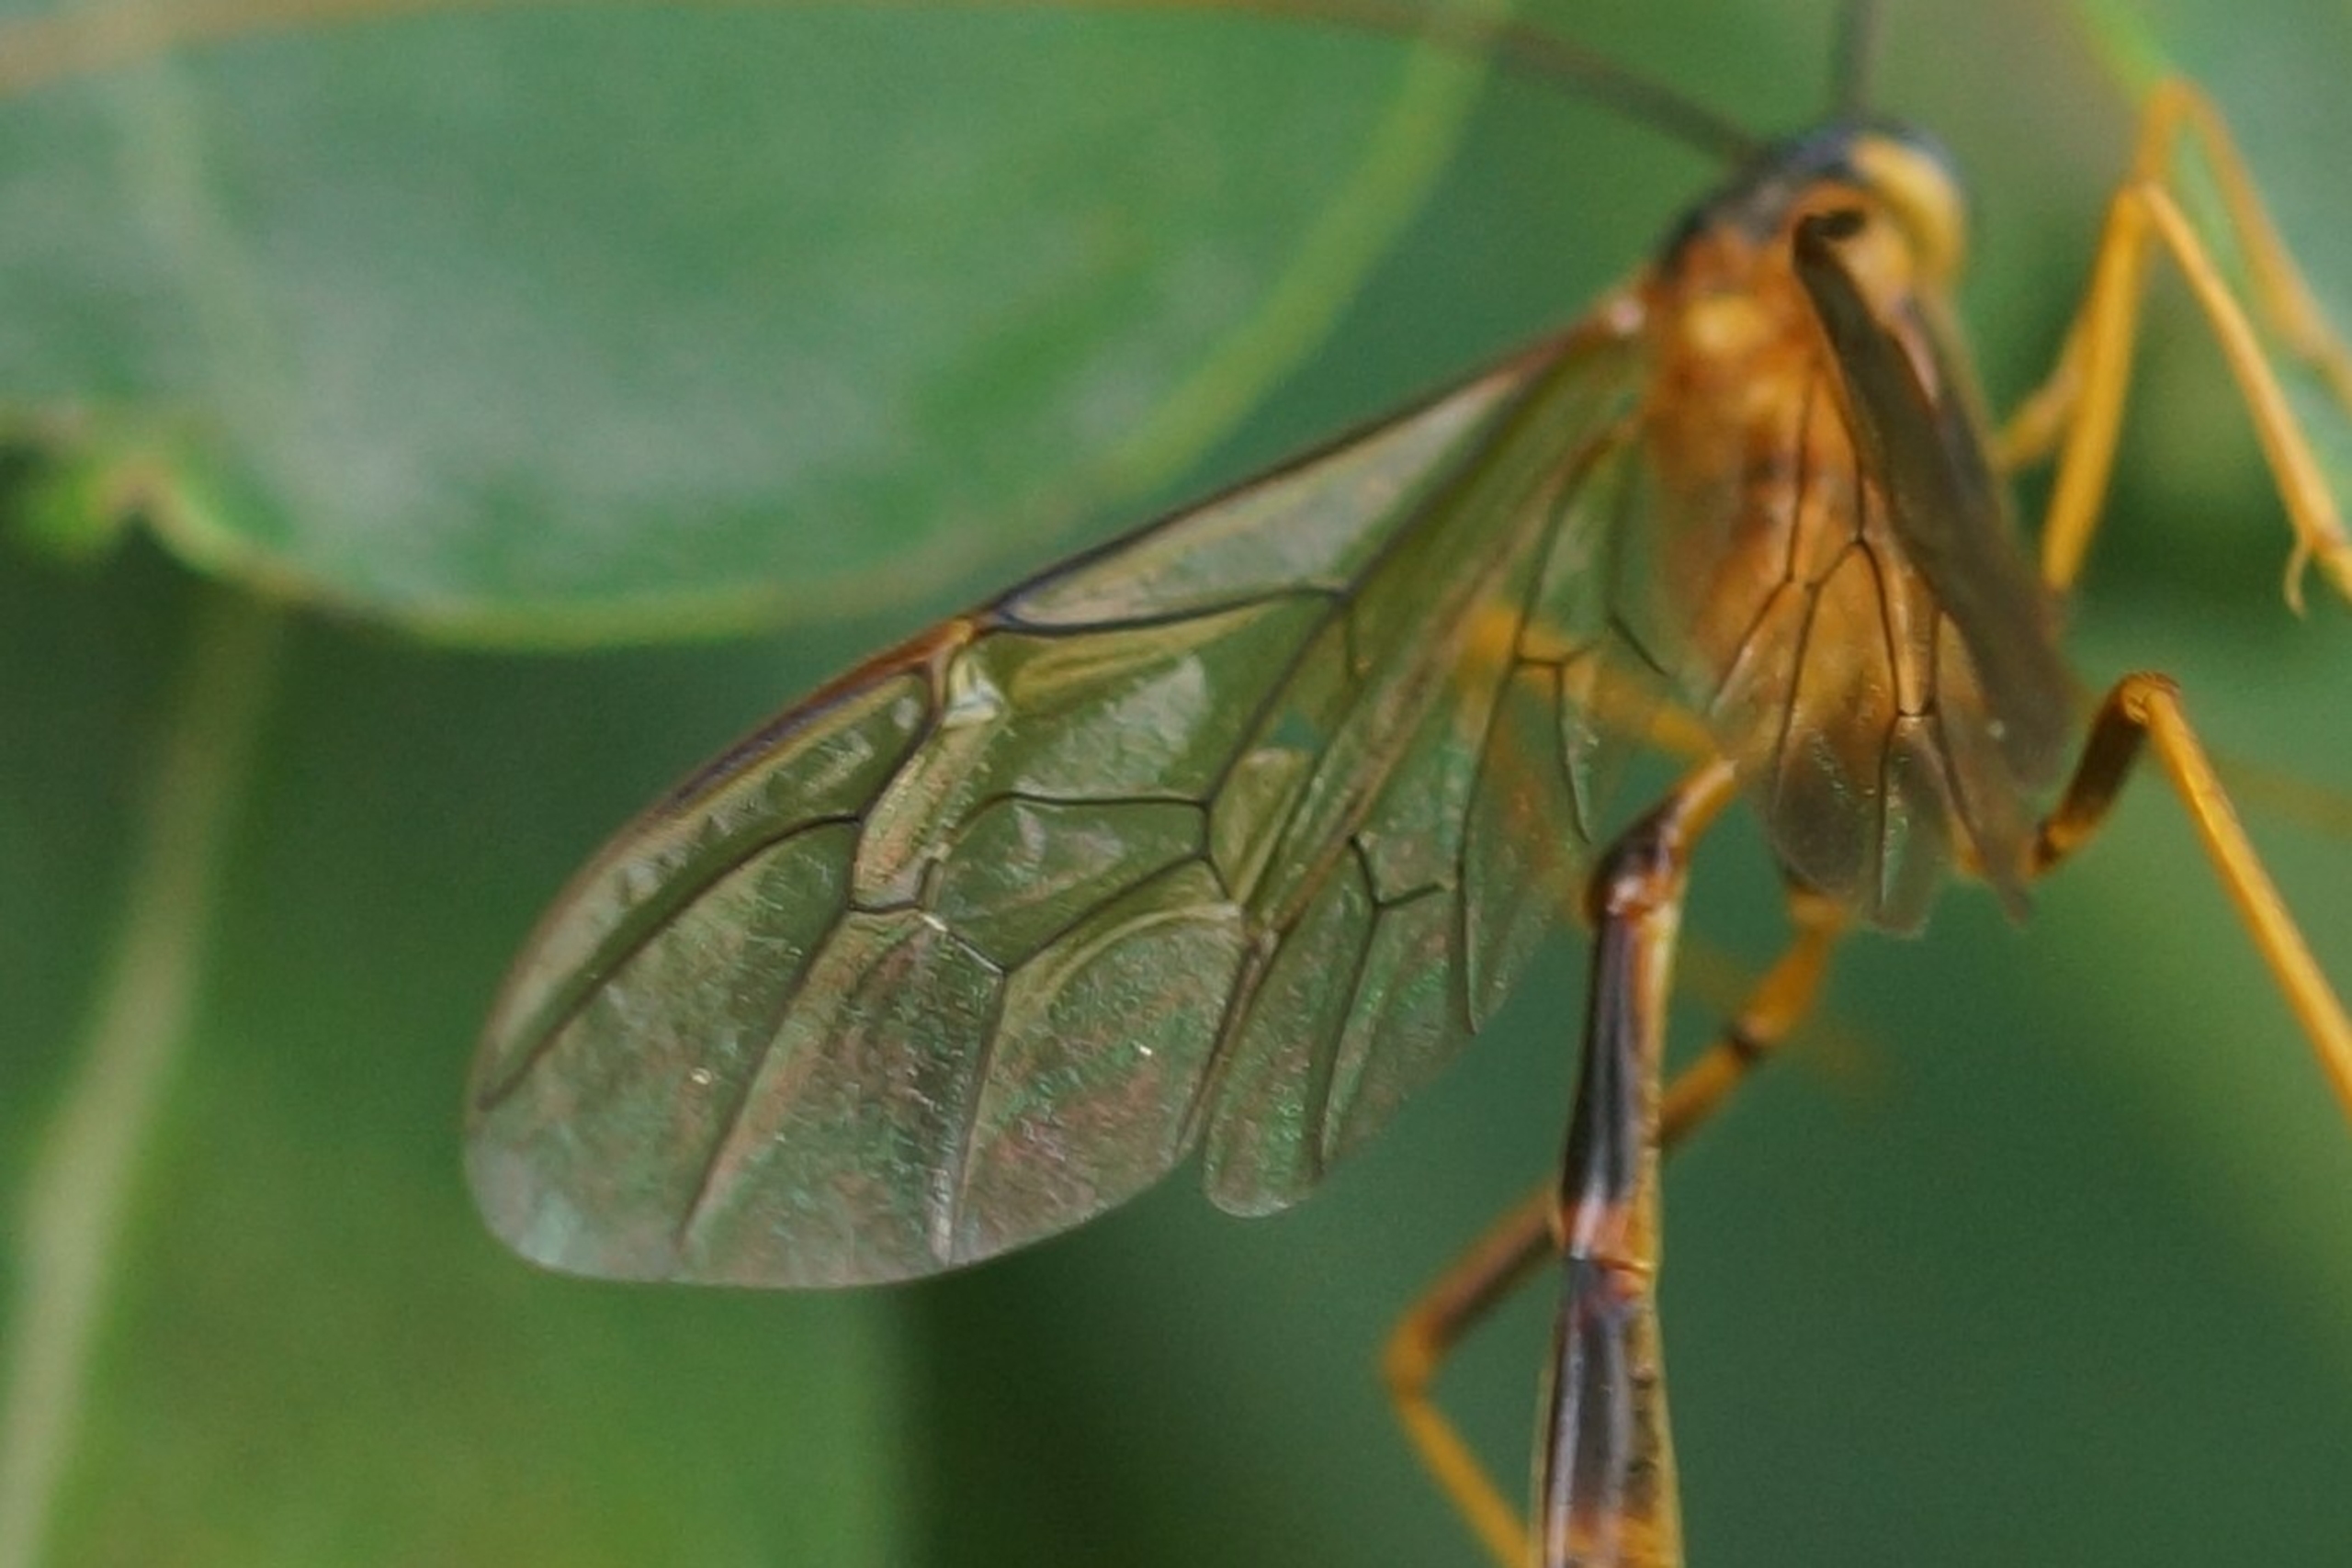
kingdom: Animalia
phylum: Arthropoda
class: Insecta
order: Hymenoptera
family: Ichneumonidae
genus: Stauropoctonus
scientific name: Stauropoctonus bombycivorus
